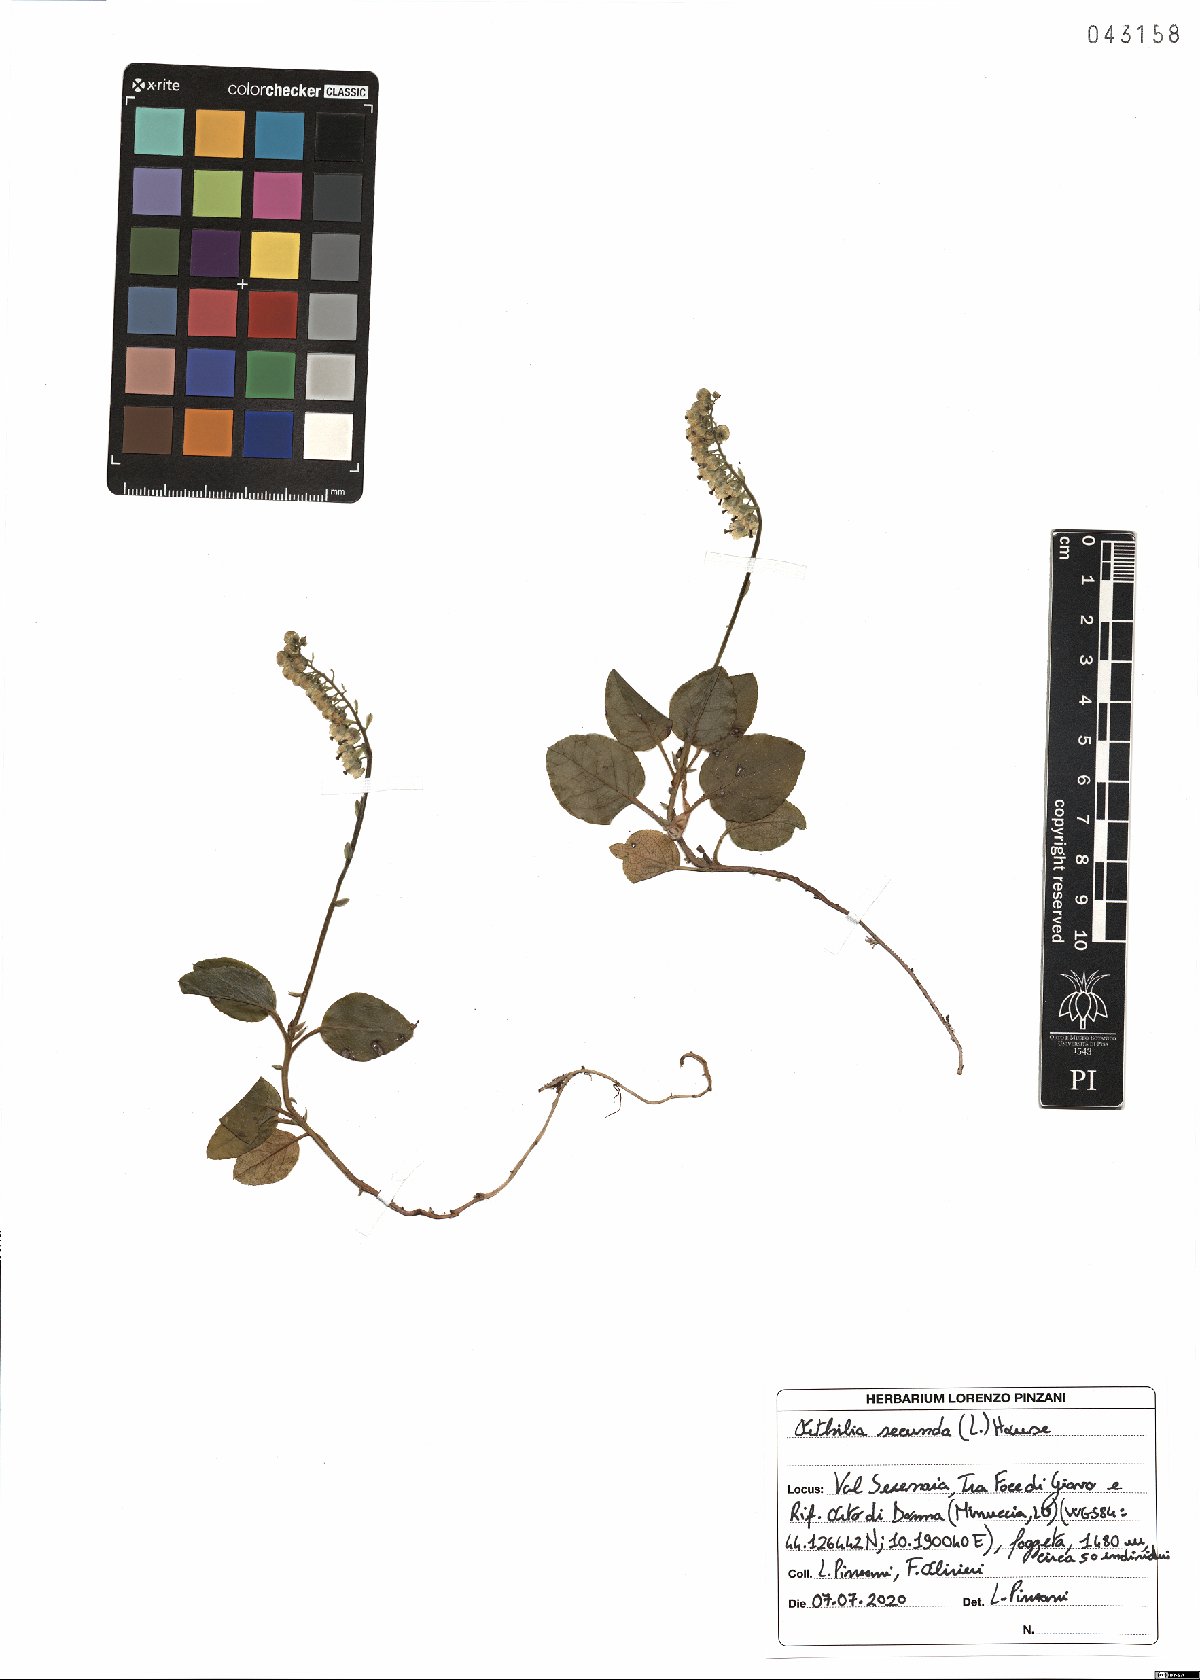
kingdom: Plantae
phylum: Tracheophyta
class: Magnoliopsida
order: Ericales
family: Ericaceae
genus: Orthilia
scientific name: Orthilia secunda
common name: One-sided orthilia
